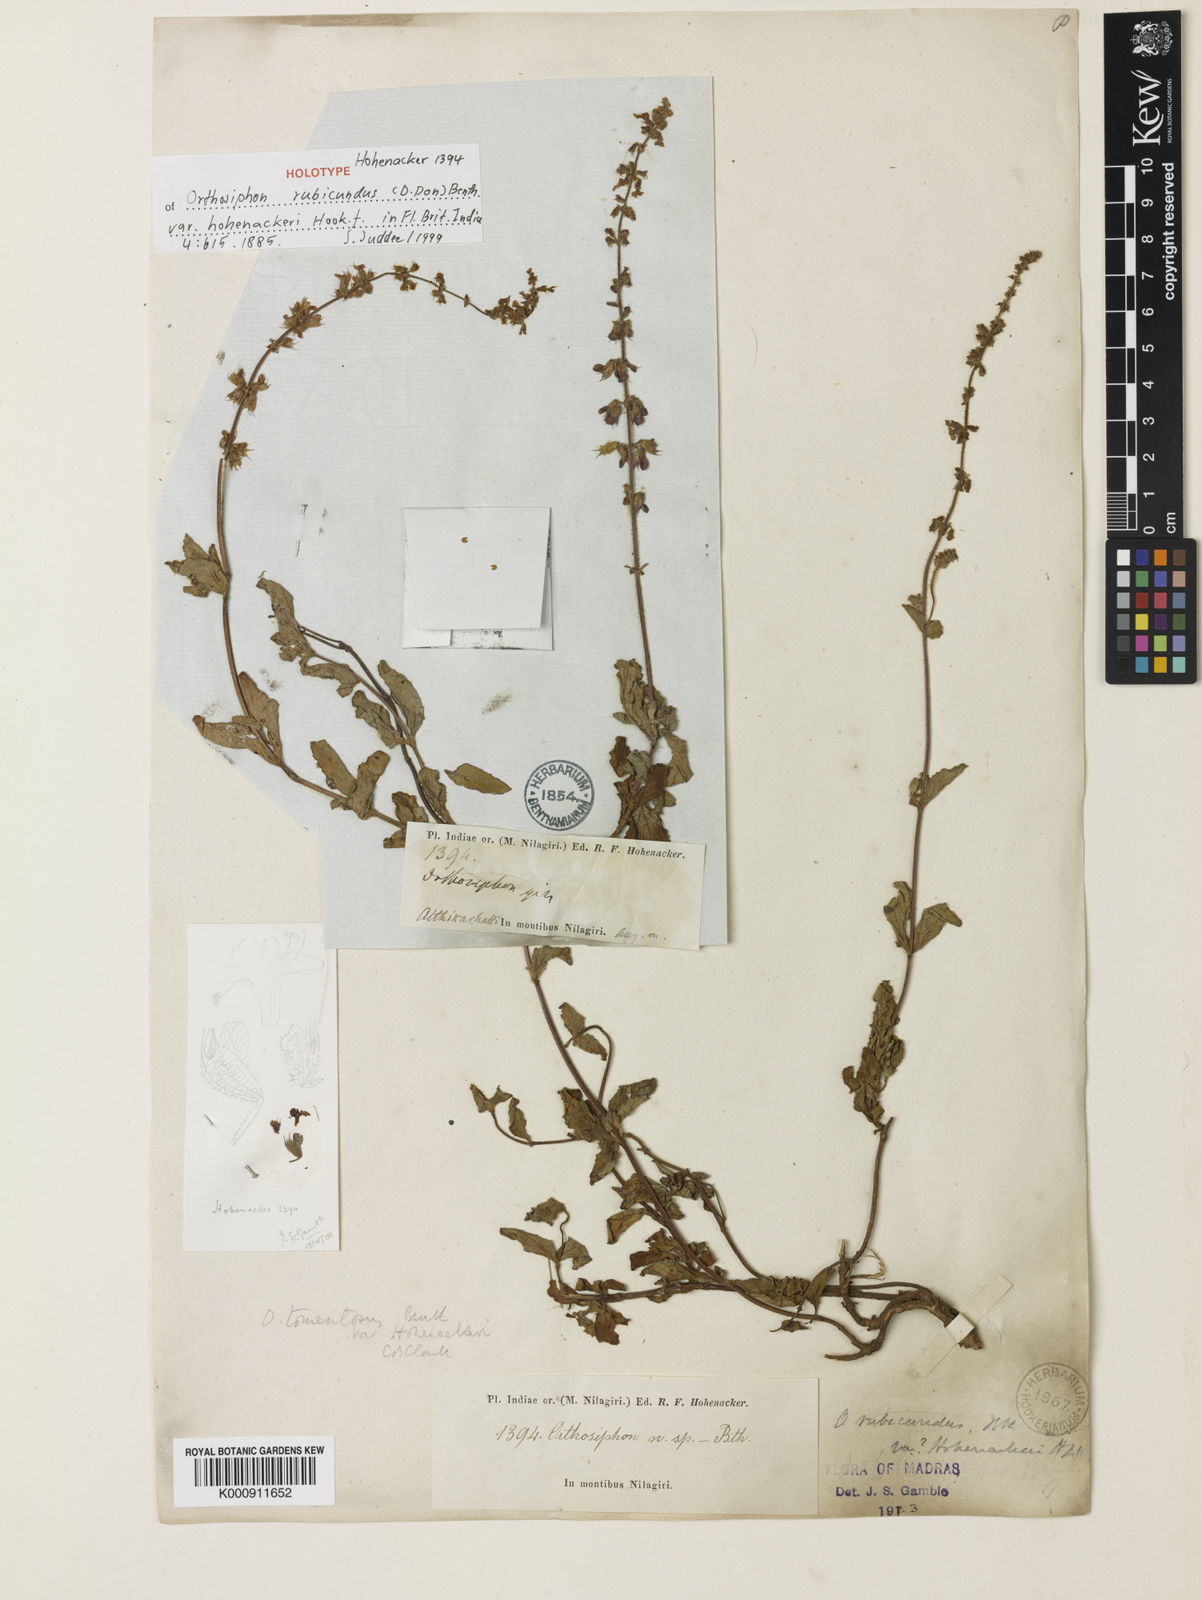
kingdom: Plantae
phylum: Tracheophyta
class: Magnoliopsida
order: Lamiales
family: Lamiaceae
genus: Orthosiphon
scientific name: Orthosiphon rubicundus
